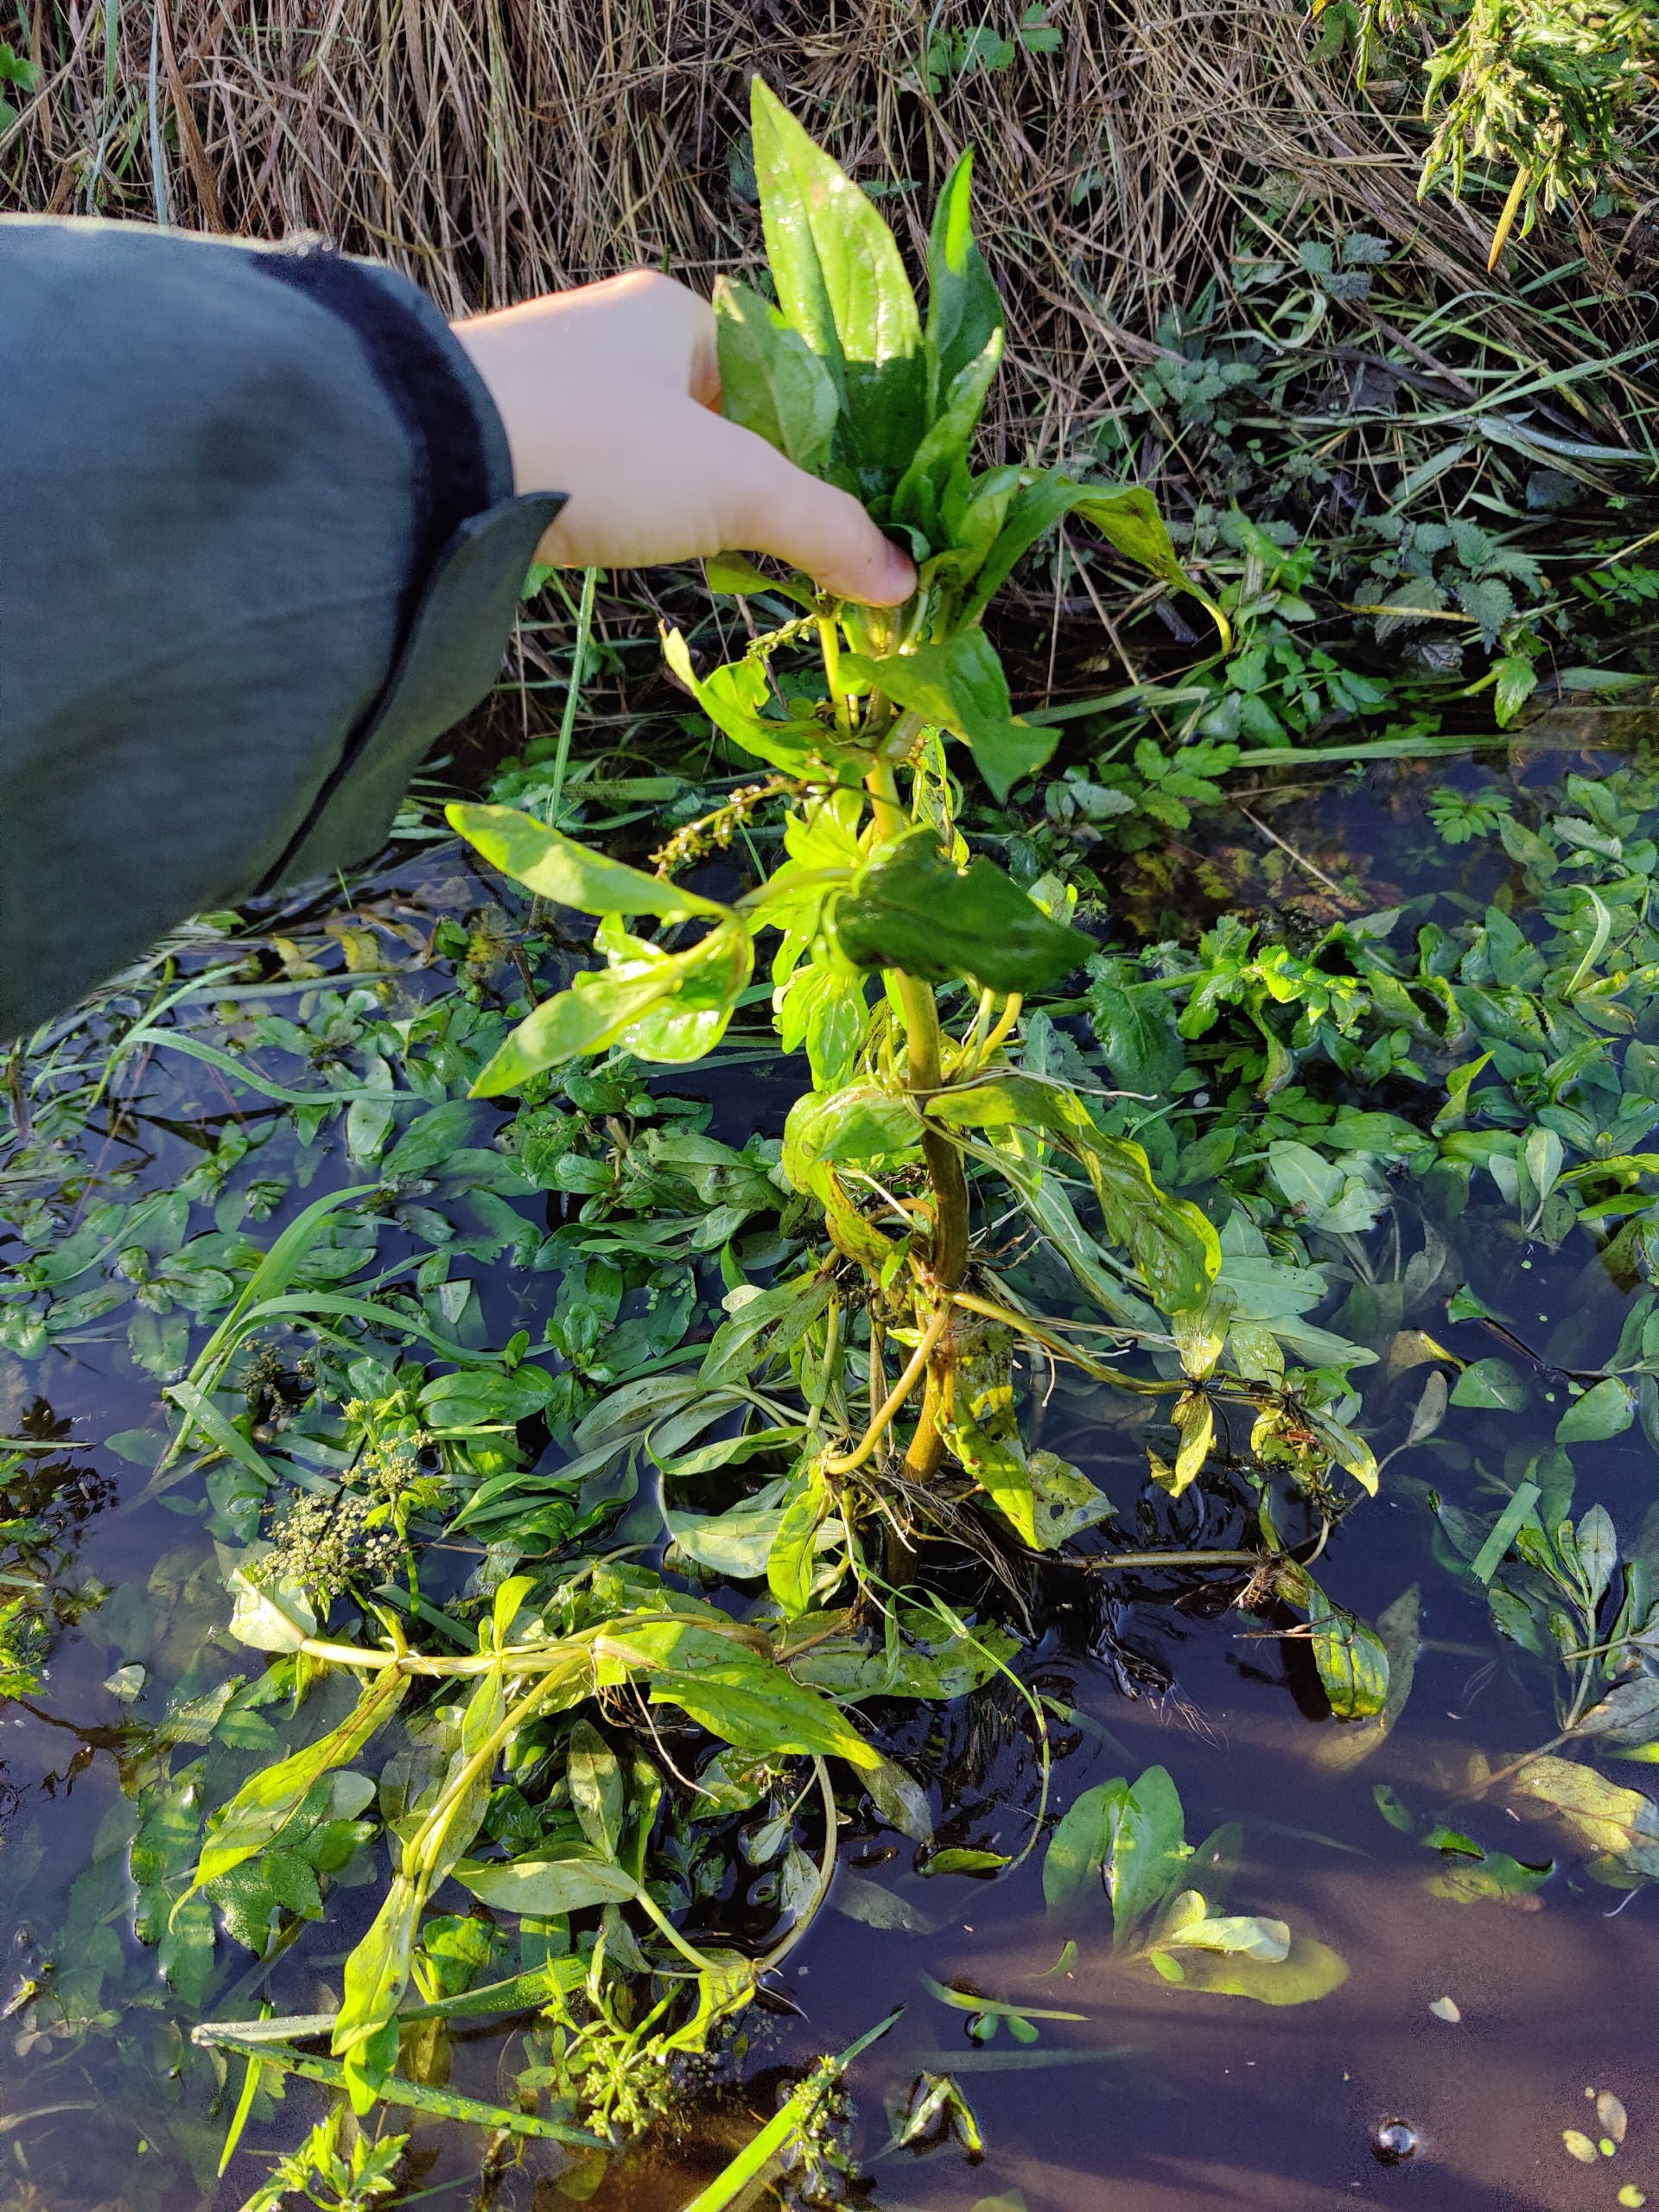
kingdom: Plantae
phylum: Tracheophyta
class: Magnoliopsida
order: Lamiales
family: Plantaginaceae
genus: Veronica
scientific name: Veronica
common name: Ærenprisslægten
